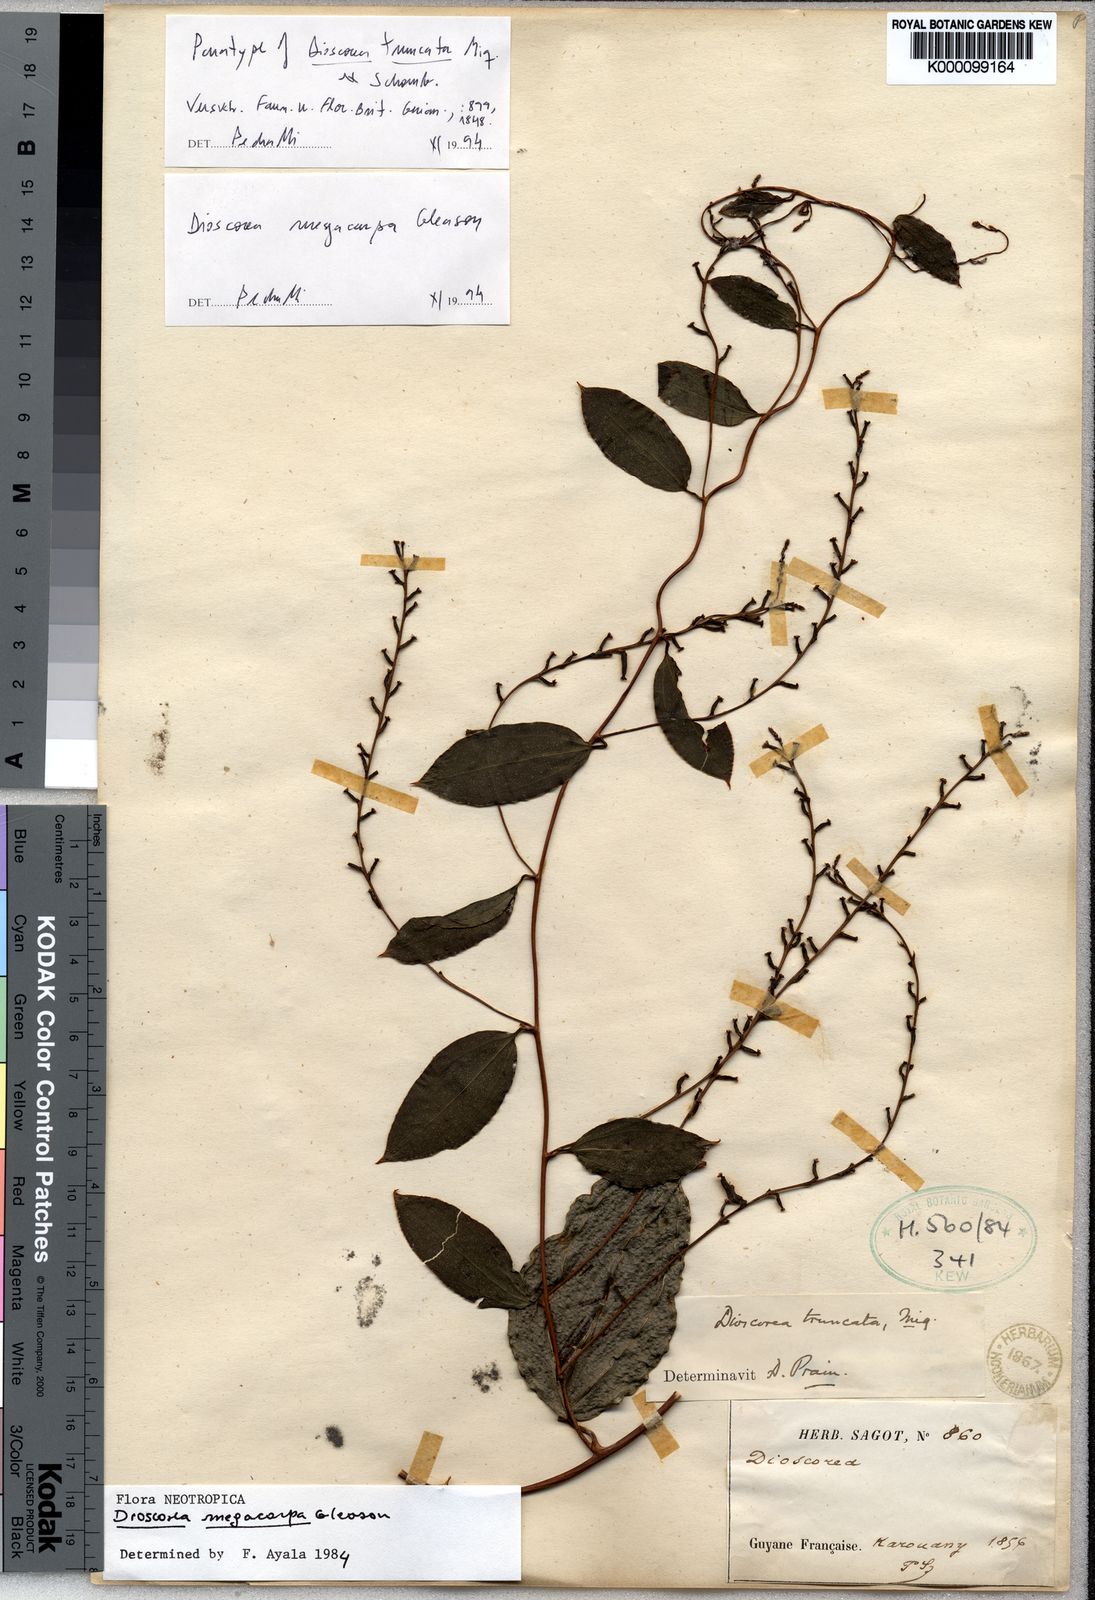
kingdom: Plantae
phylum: Tracheophyta
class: Liliopsida
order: Dioscoreales
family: Dioscoreaceae
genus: Dioscorea
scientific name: Dioscorea marginata
